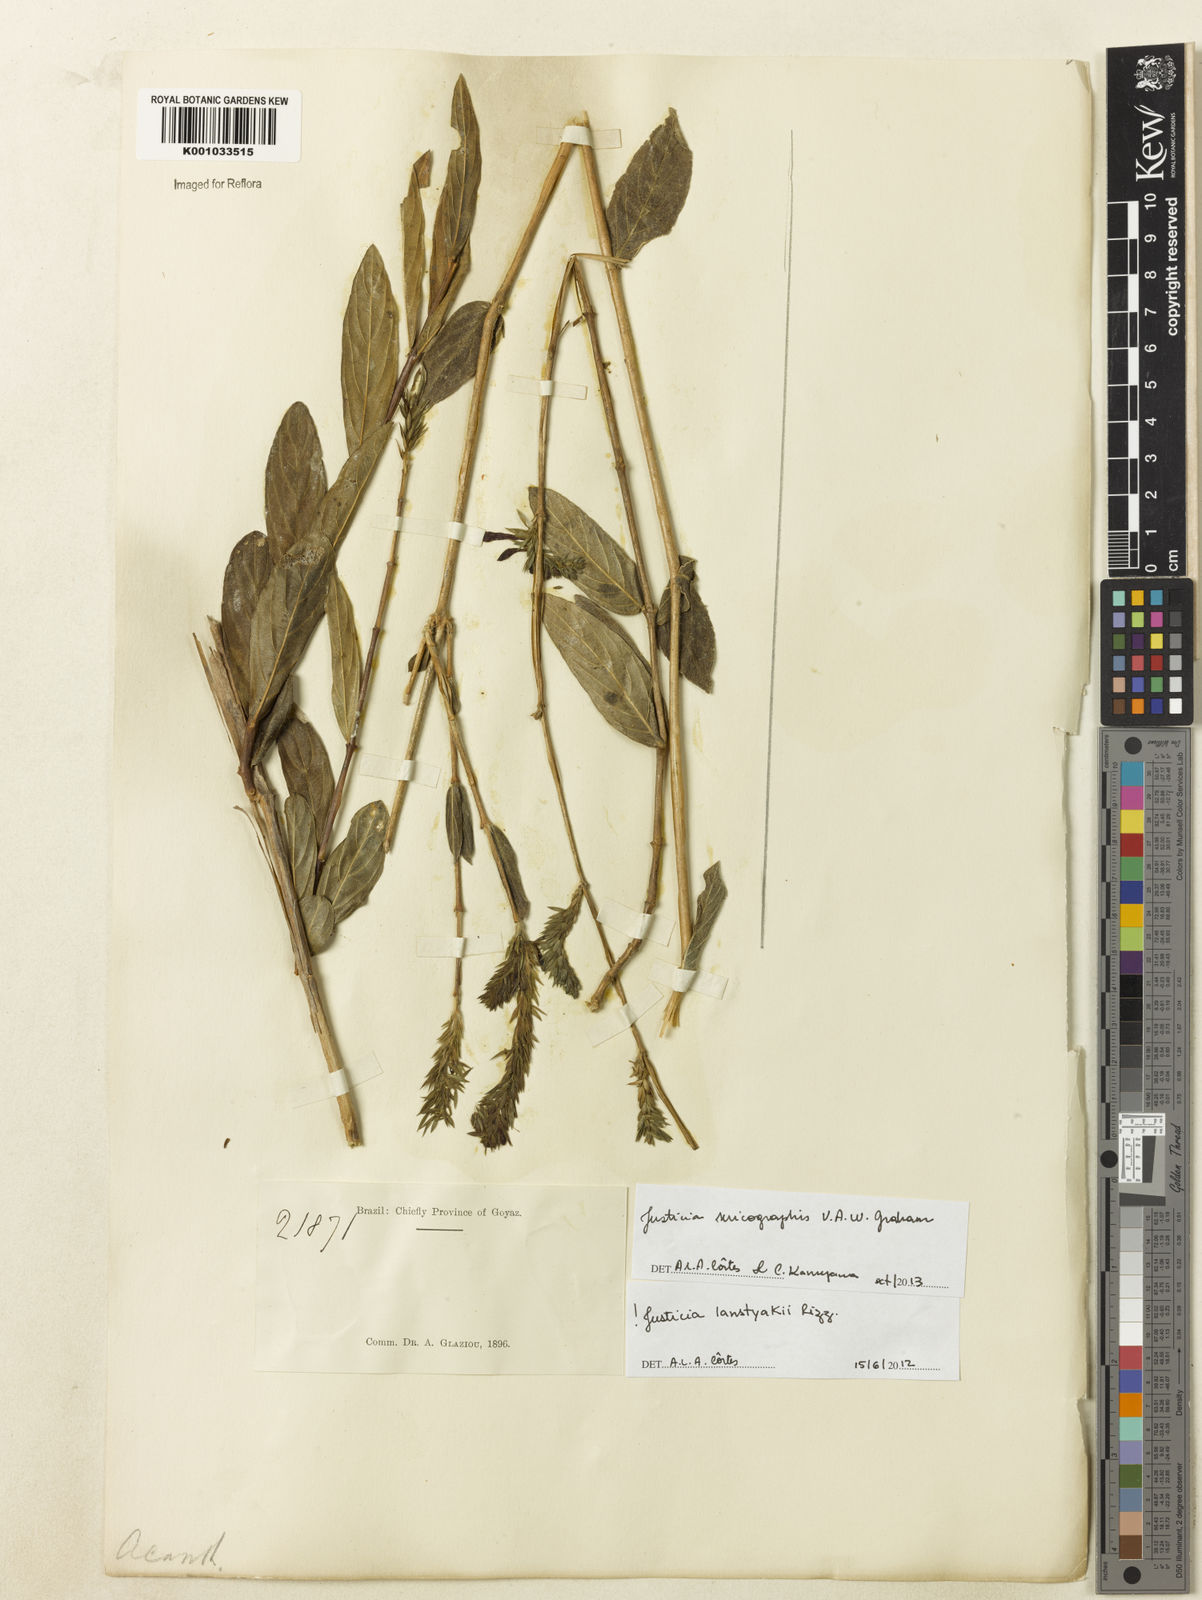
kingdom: Plantae
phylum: Tracheophyta
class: Magnoliopsida
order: Lamiales
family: Acanthaceae
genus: Dianthera
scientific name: Dianthera rigida
